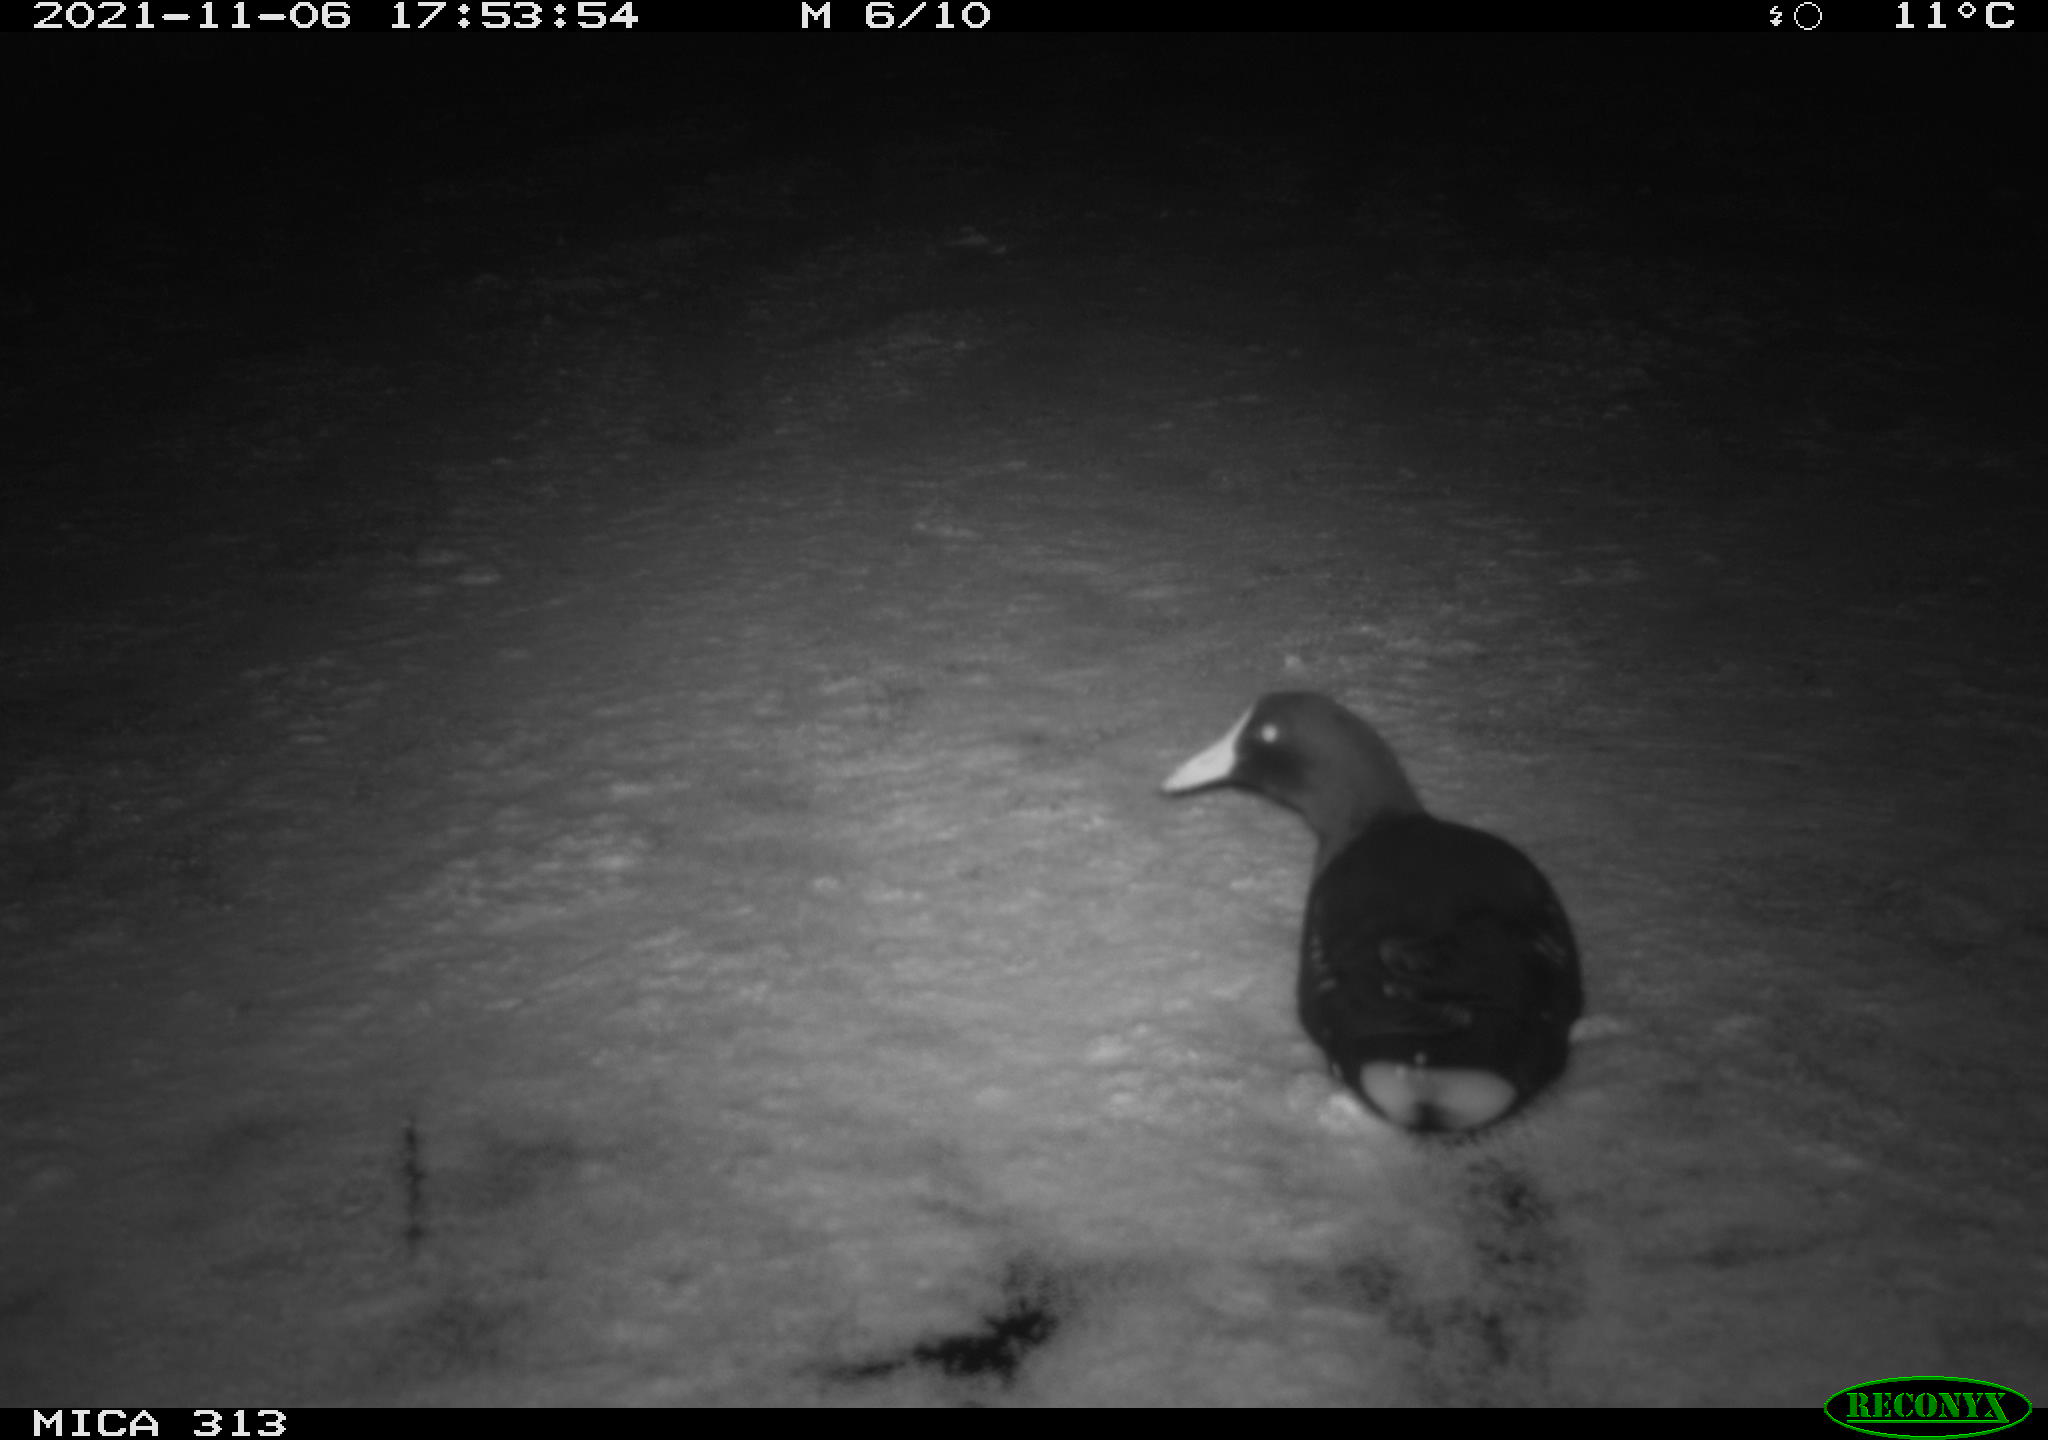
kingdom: Animalia
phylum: Chordata
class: Aves
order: Gruiformes
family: Rallidae
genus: Gallinula
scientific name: Gallinula chloropus
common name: Common moorhen
